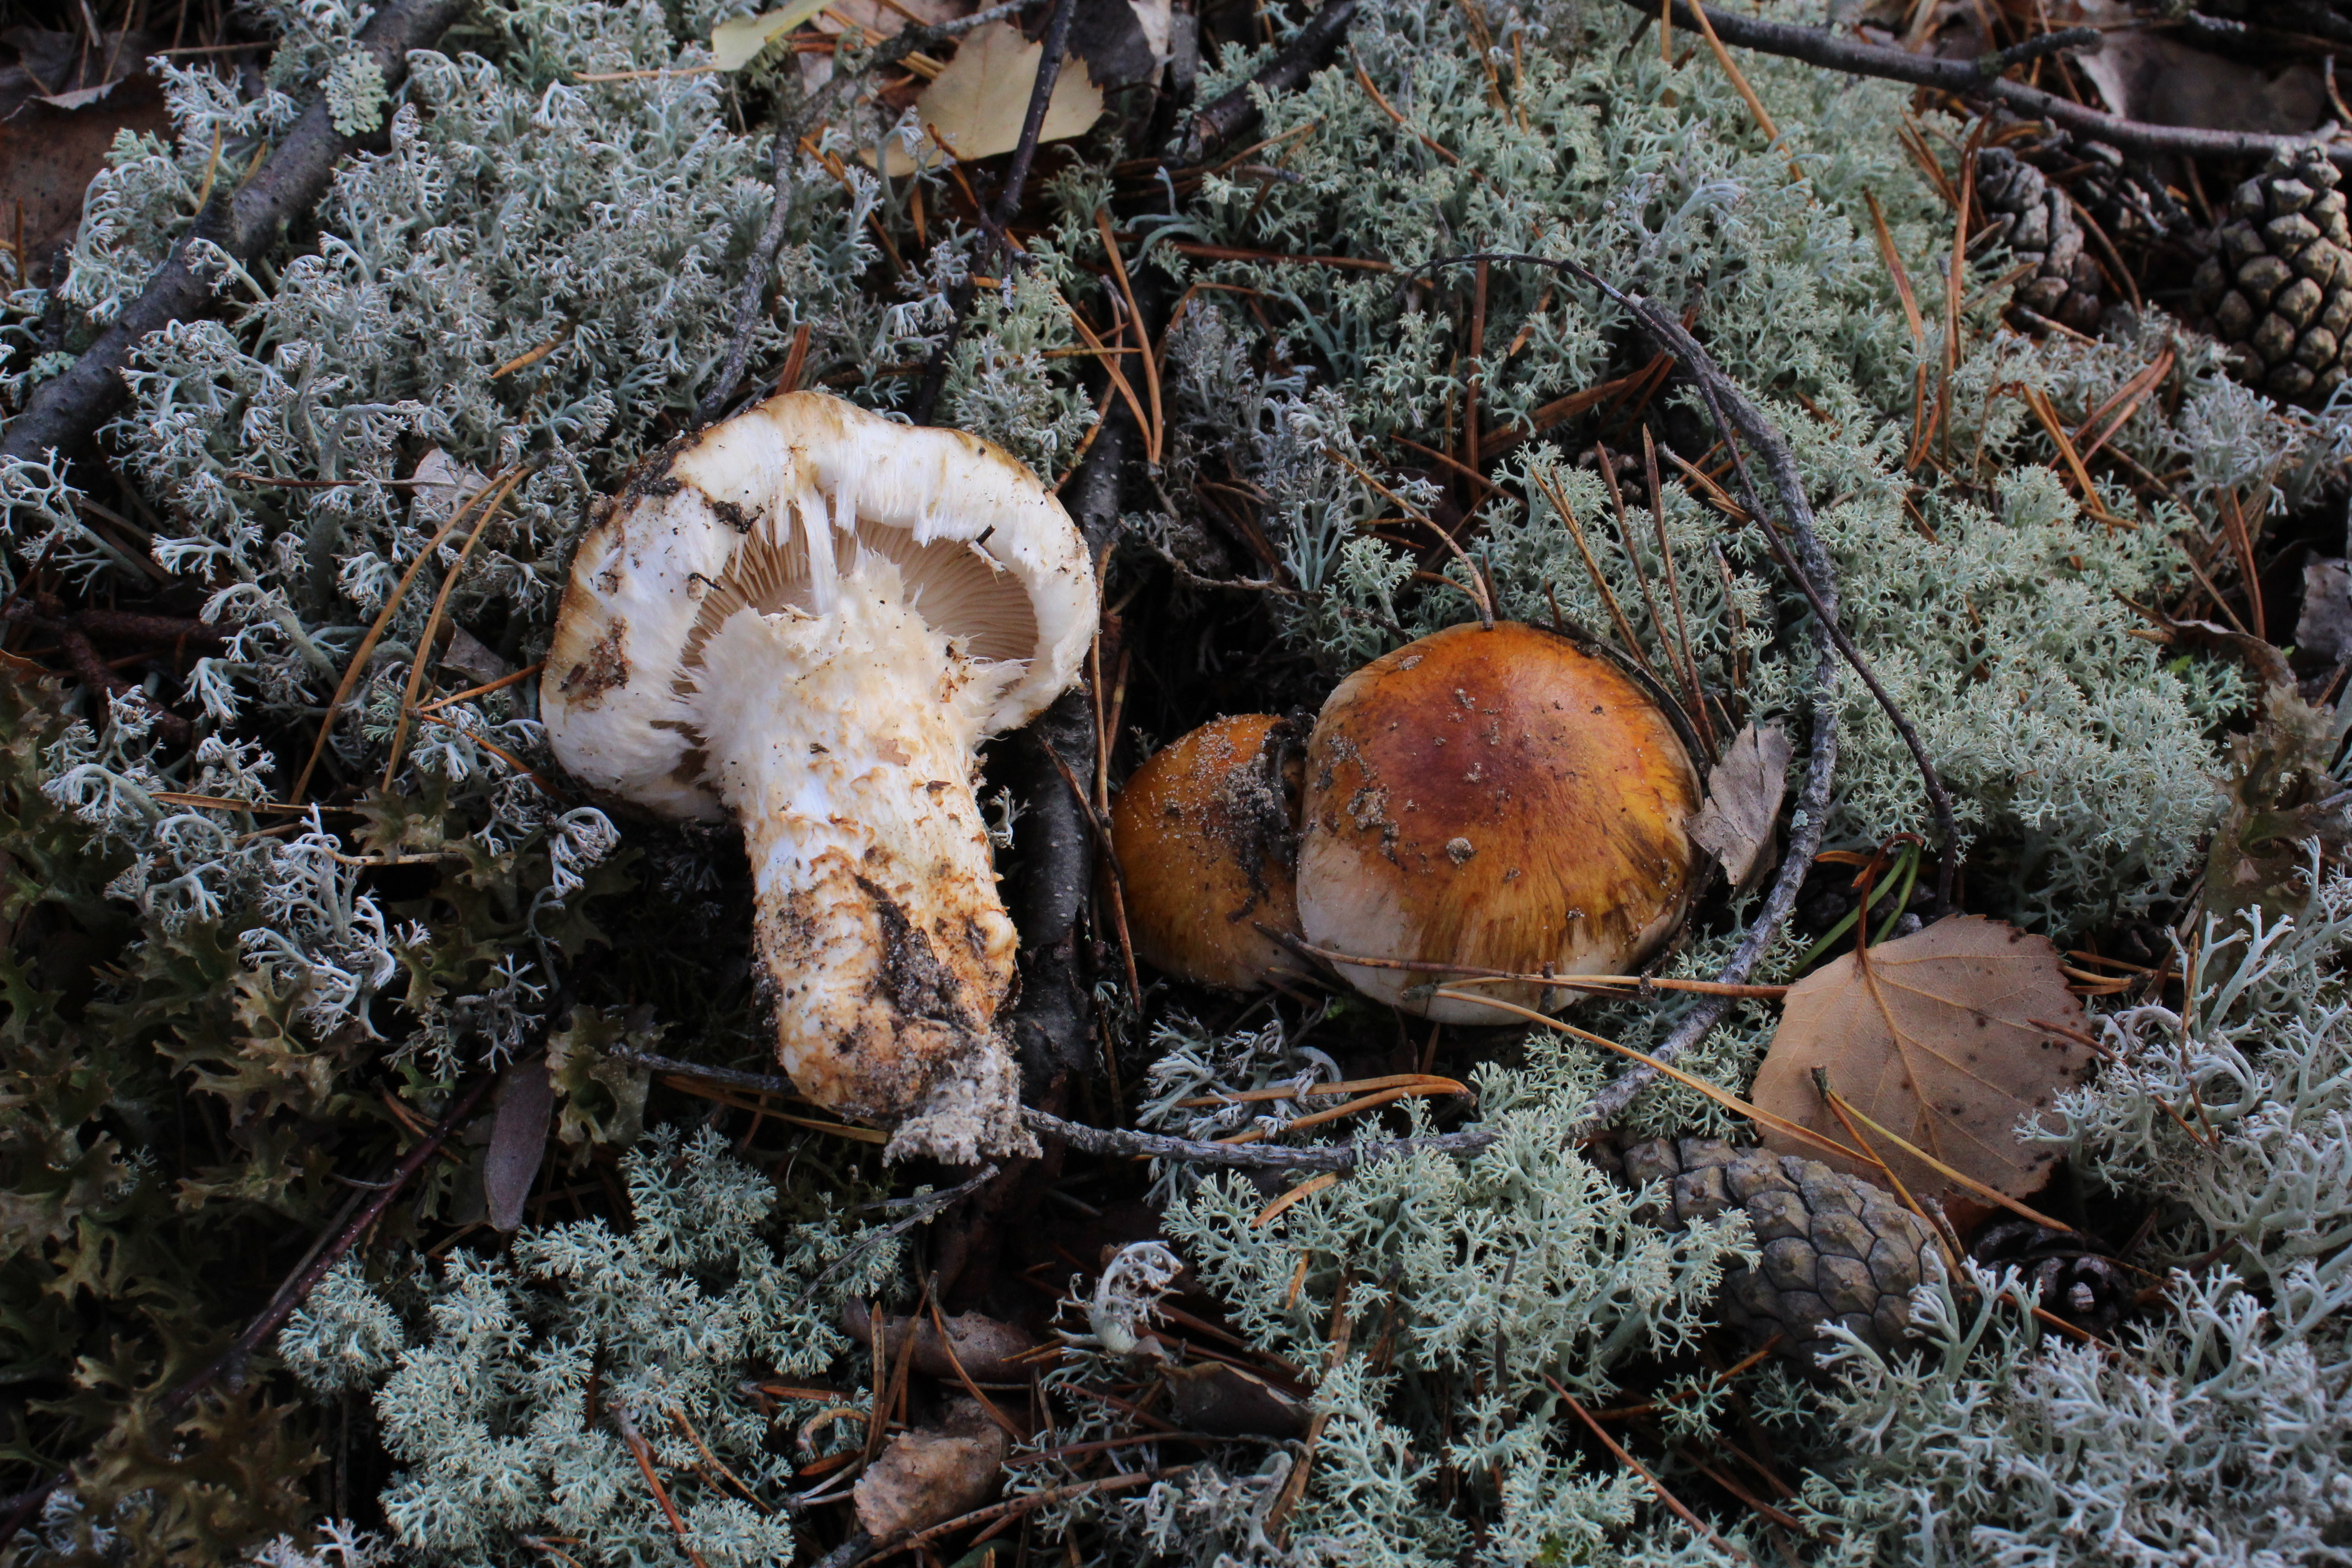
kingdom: Fungi
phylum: Basidiomycota
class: Agaricomycetes
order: Agaricales
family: Tricholomataceae
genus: Tricholoma
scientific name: Tricholoma focale
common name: Booted knight
